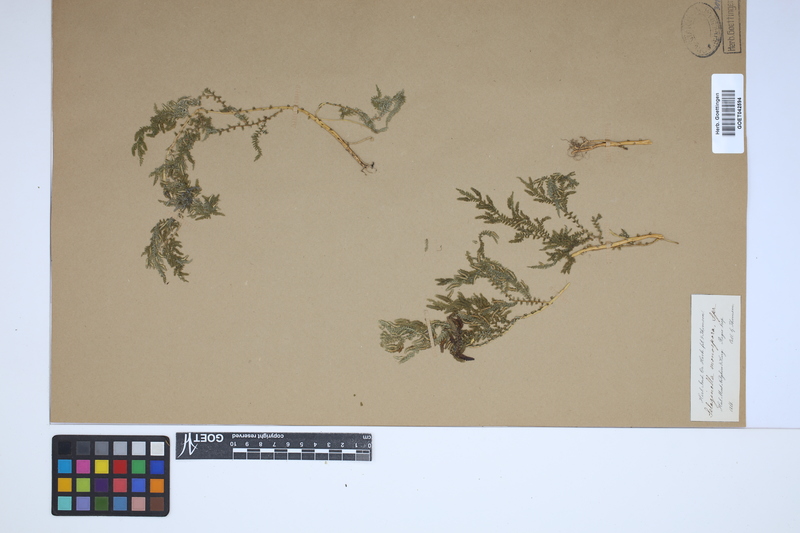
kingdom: Plantae
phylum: Tracheophyta
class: Lycopodiopsida
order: Selaginellales
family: Selaginellaceae
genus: Selaginella
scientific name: Selaginella monospora
